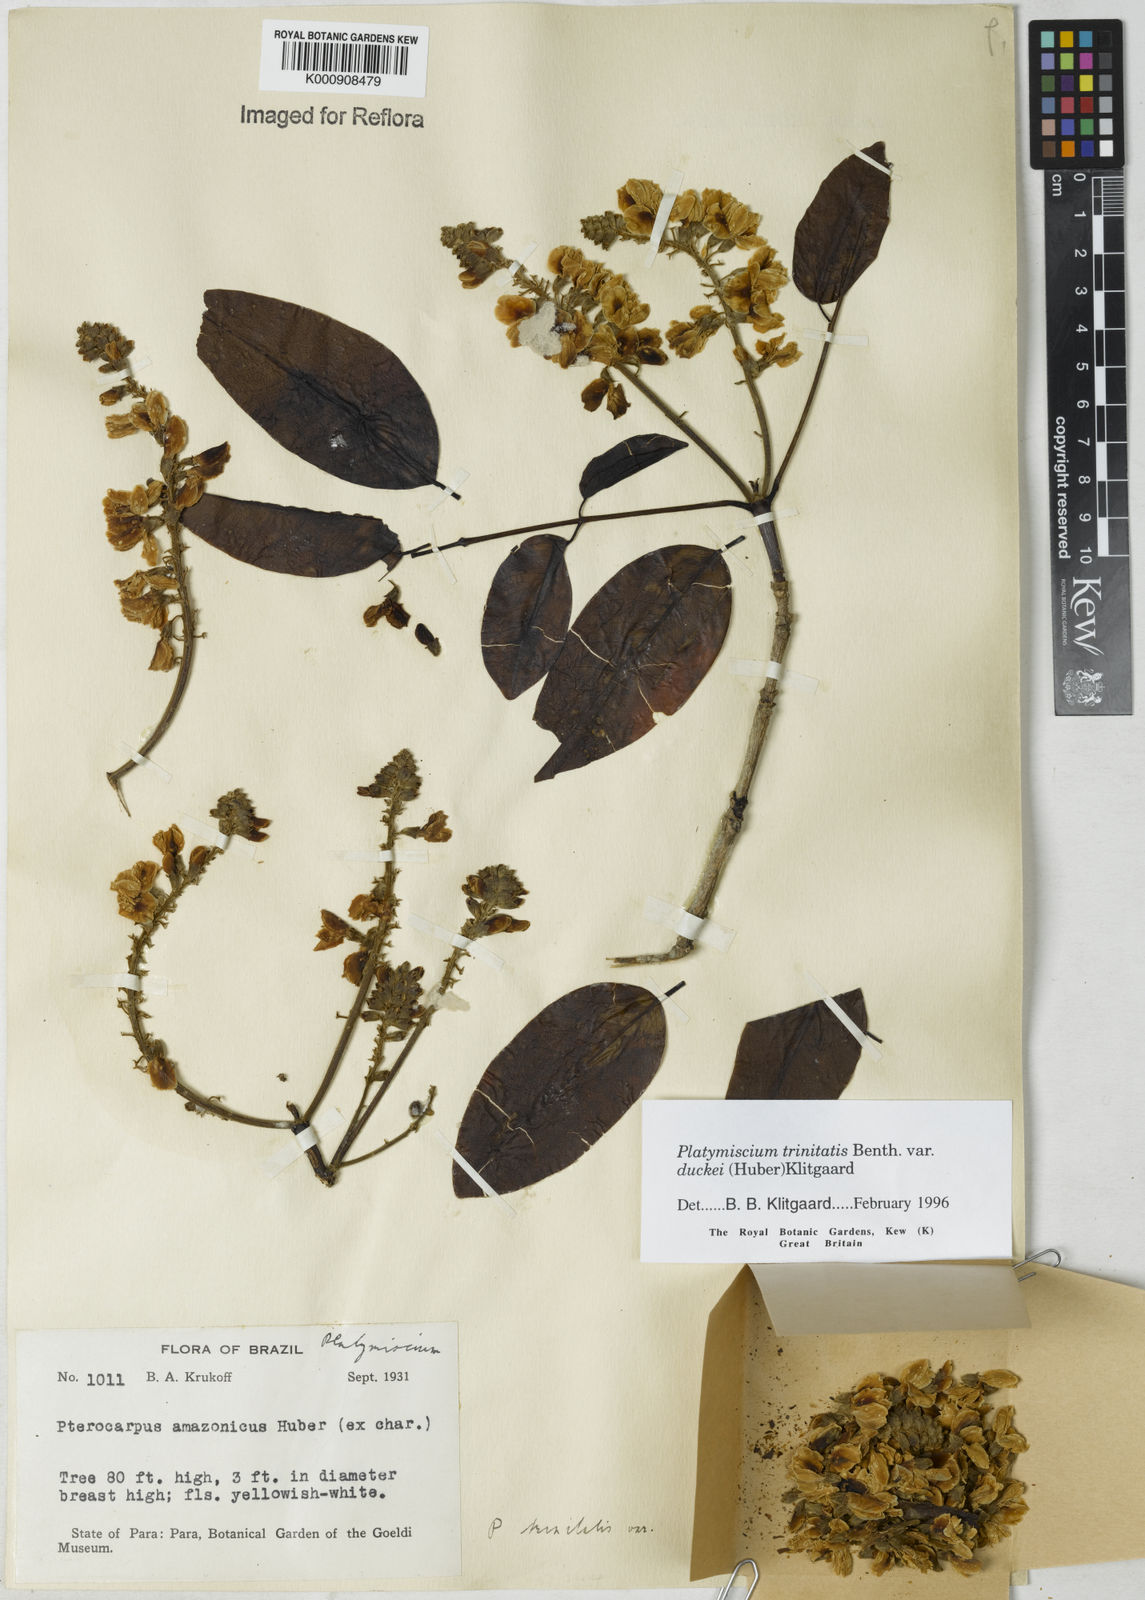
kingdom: Plantae
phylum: Tracheophyta
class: Magnoliopsida
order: Fabales
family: Fabaceae
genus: Platymiscium
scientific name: Platymiscium trinitatis
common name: Trinidad macawood
